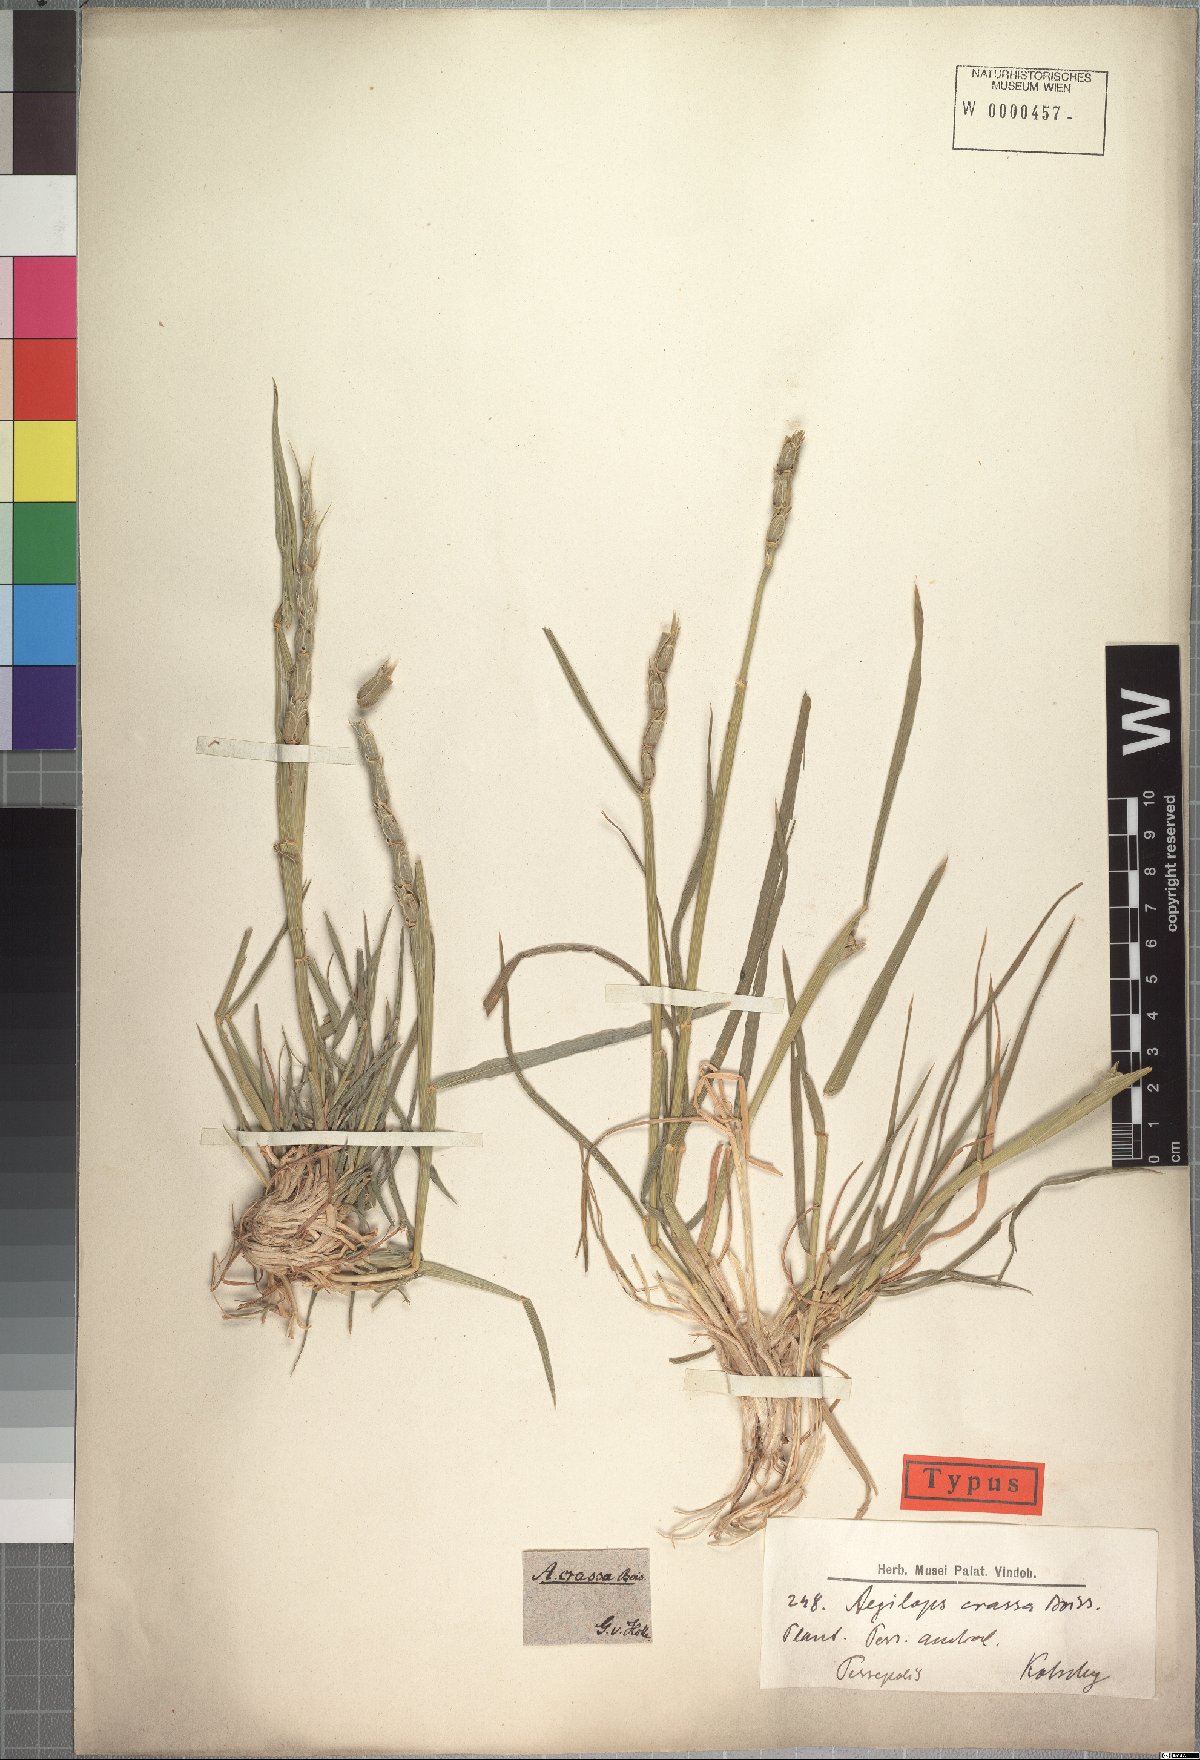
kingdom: Plantae
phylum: Tracheophyta
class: Liliopsida
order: Poales
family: Poaceae
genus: Aegilops
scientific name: Aegilops crassa
